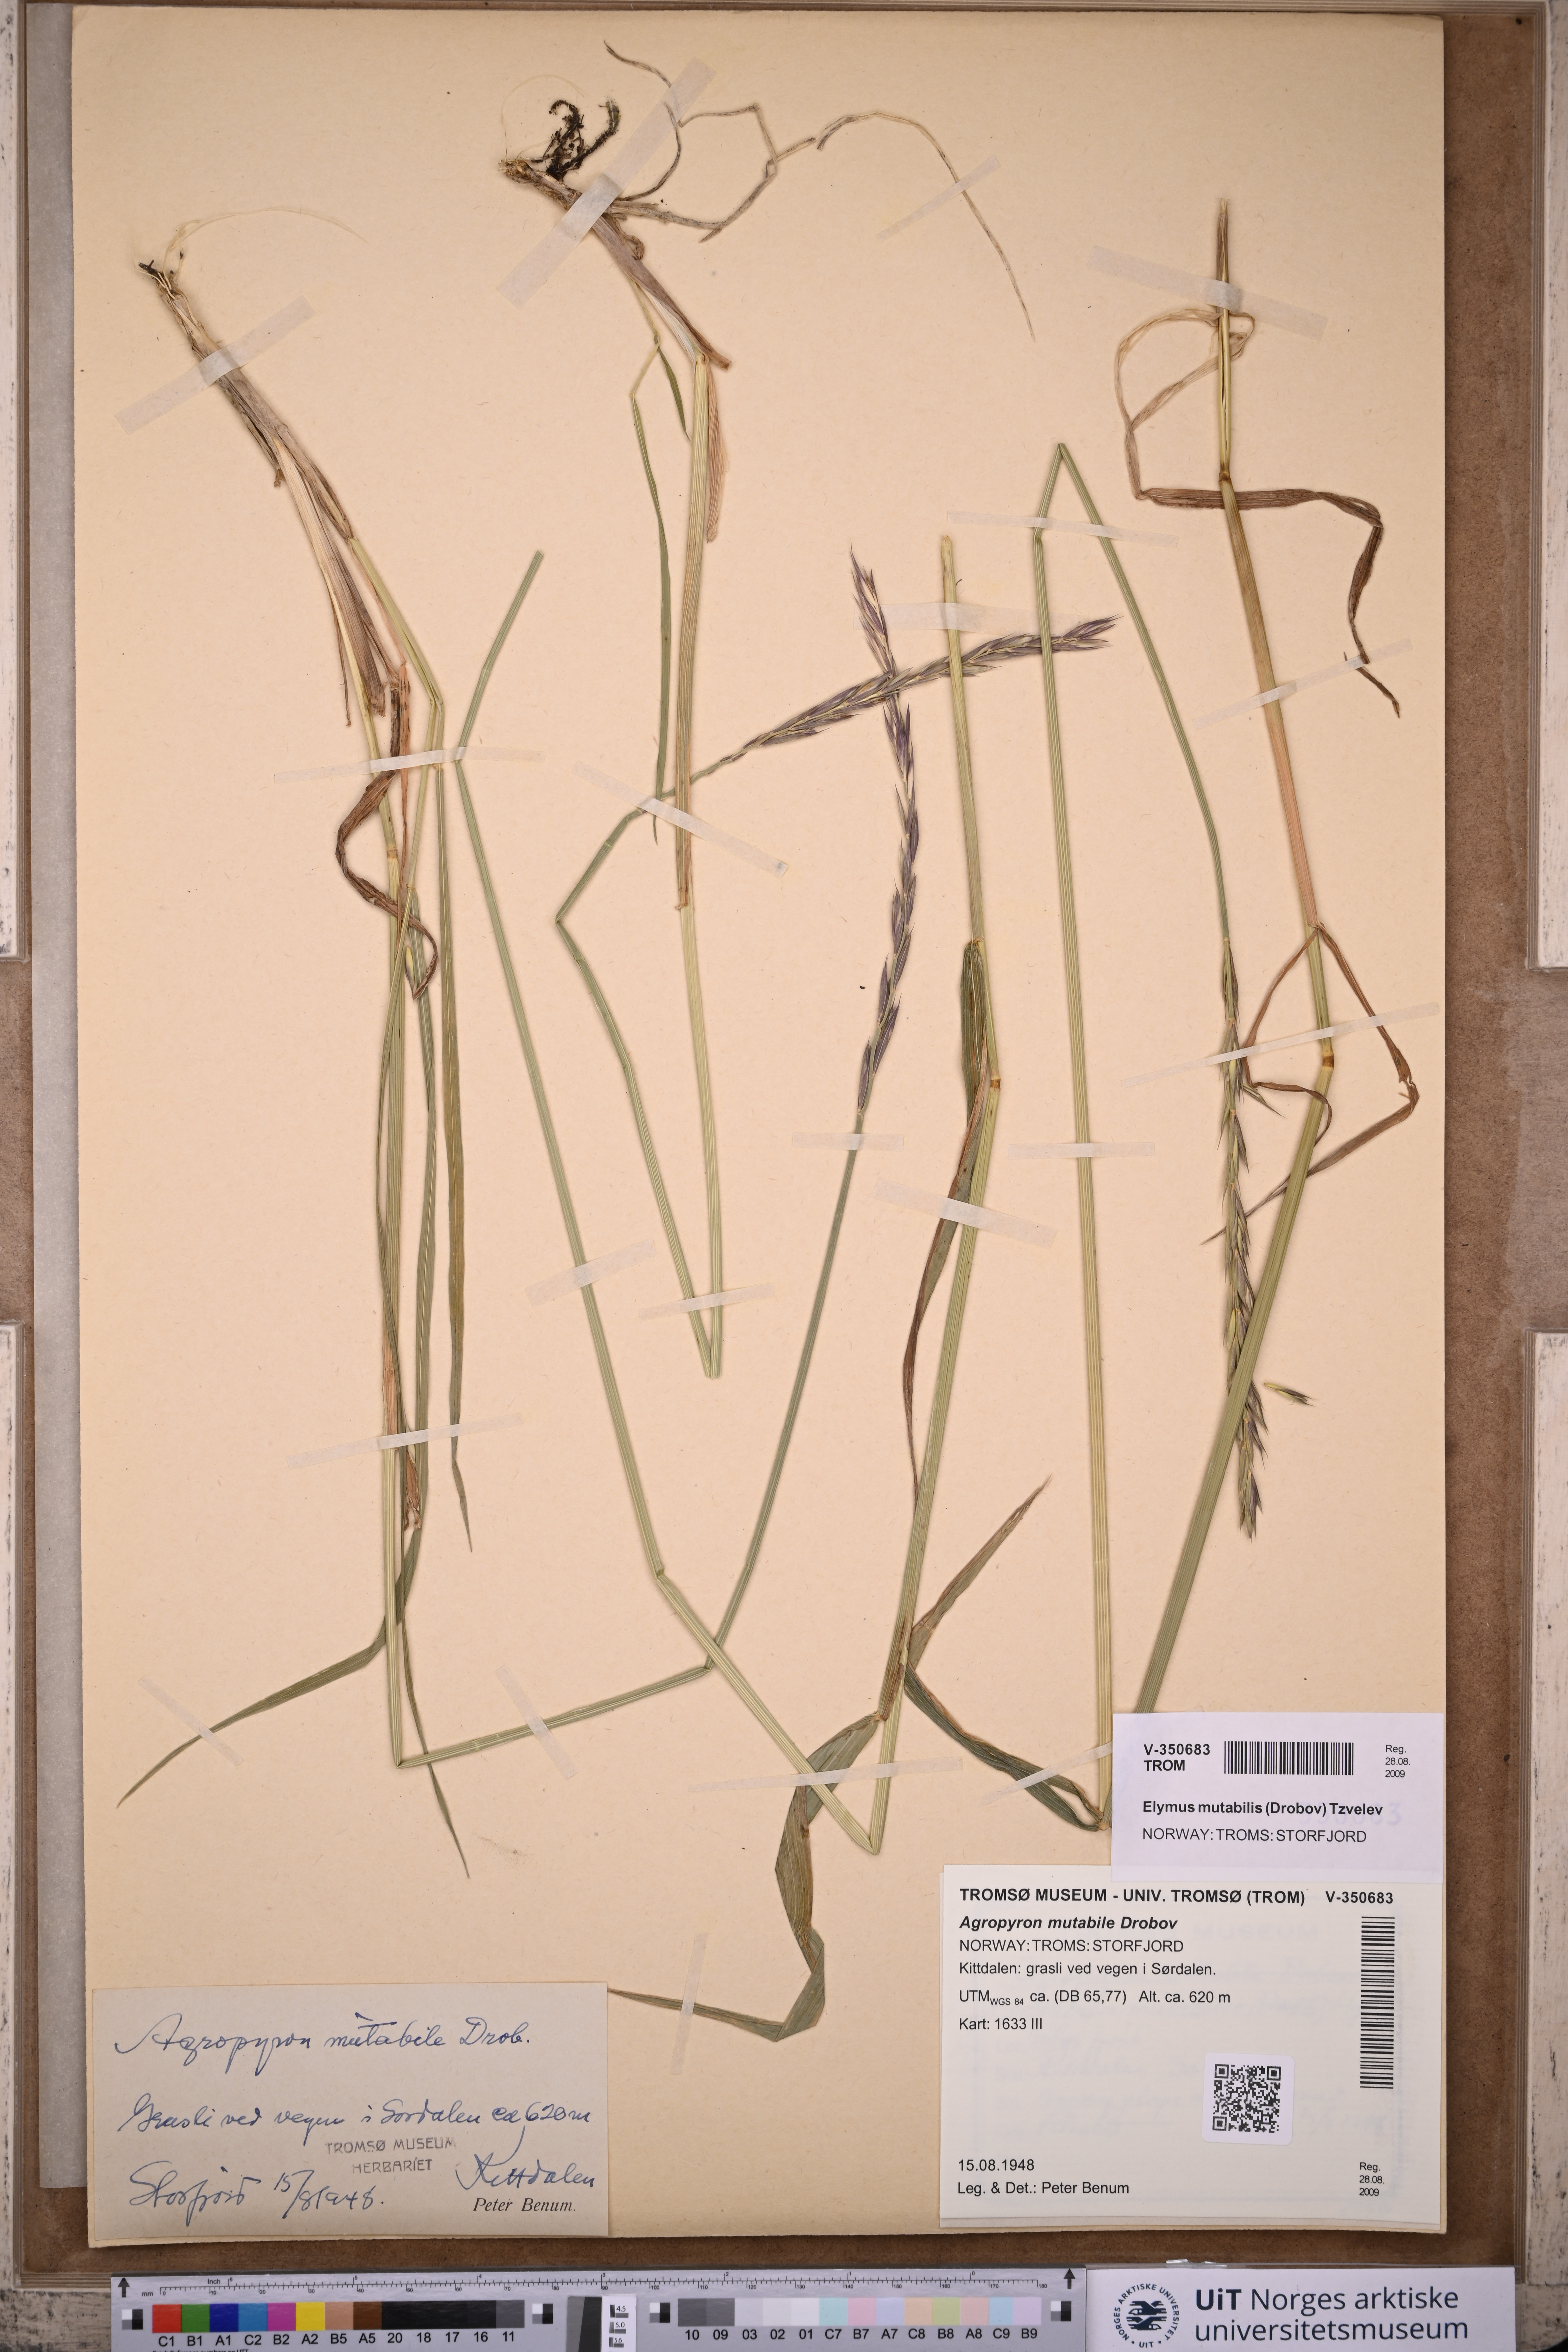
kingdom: Plantae
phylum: Tracheophyta
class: Liliopsida
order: Poales
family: Poaceae
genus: Elymus
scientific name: Elymus mutabilis
